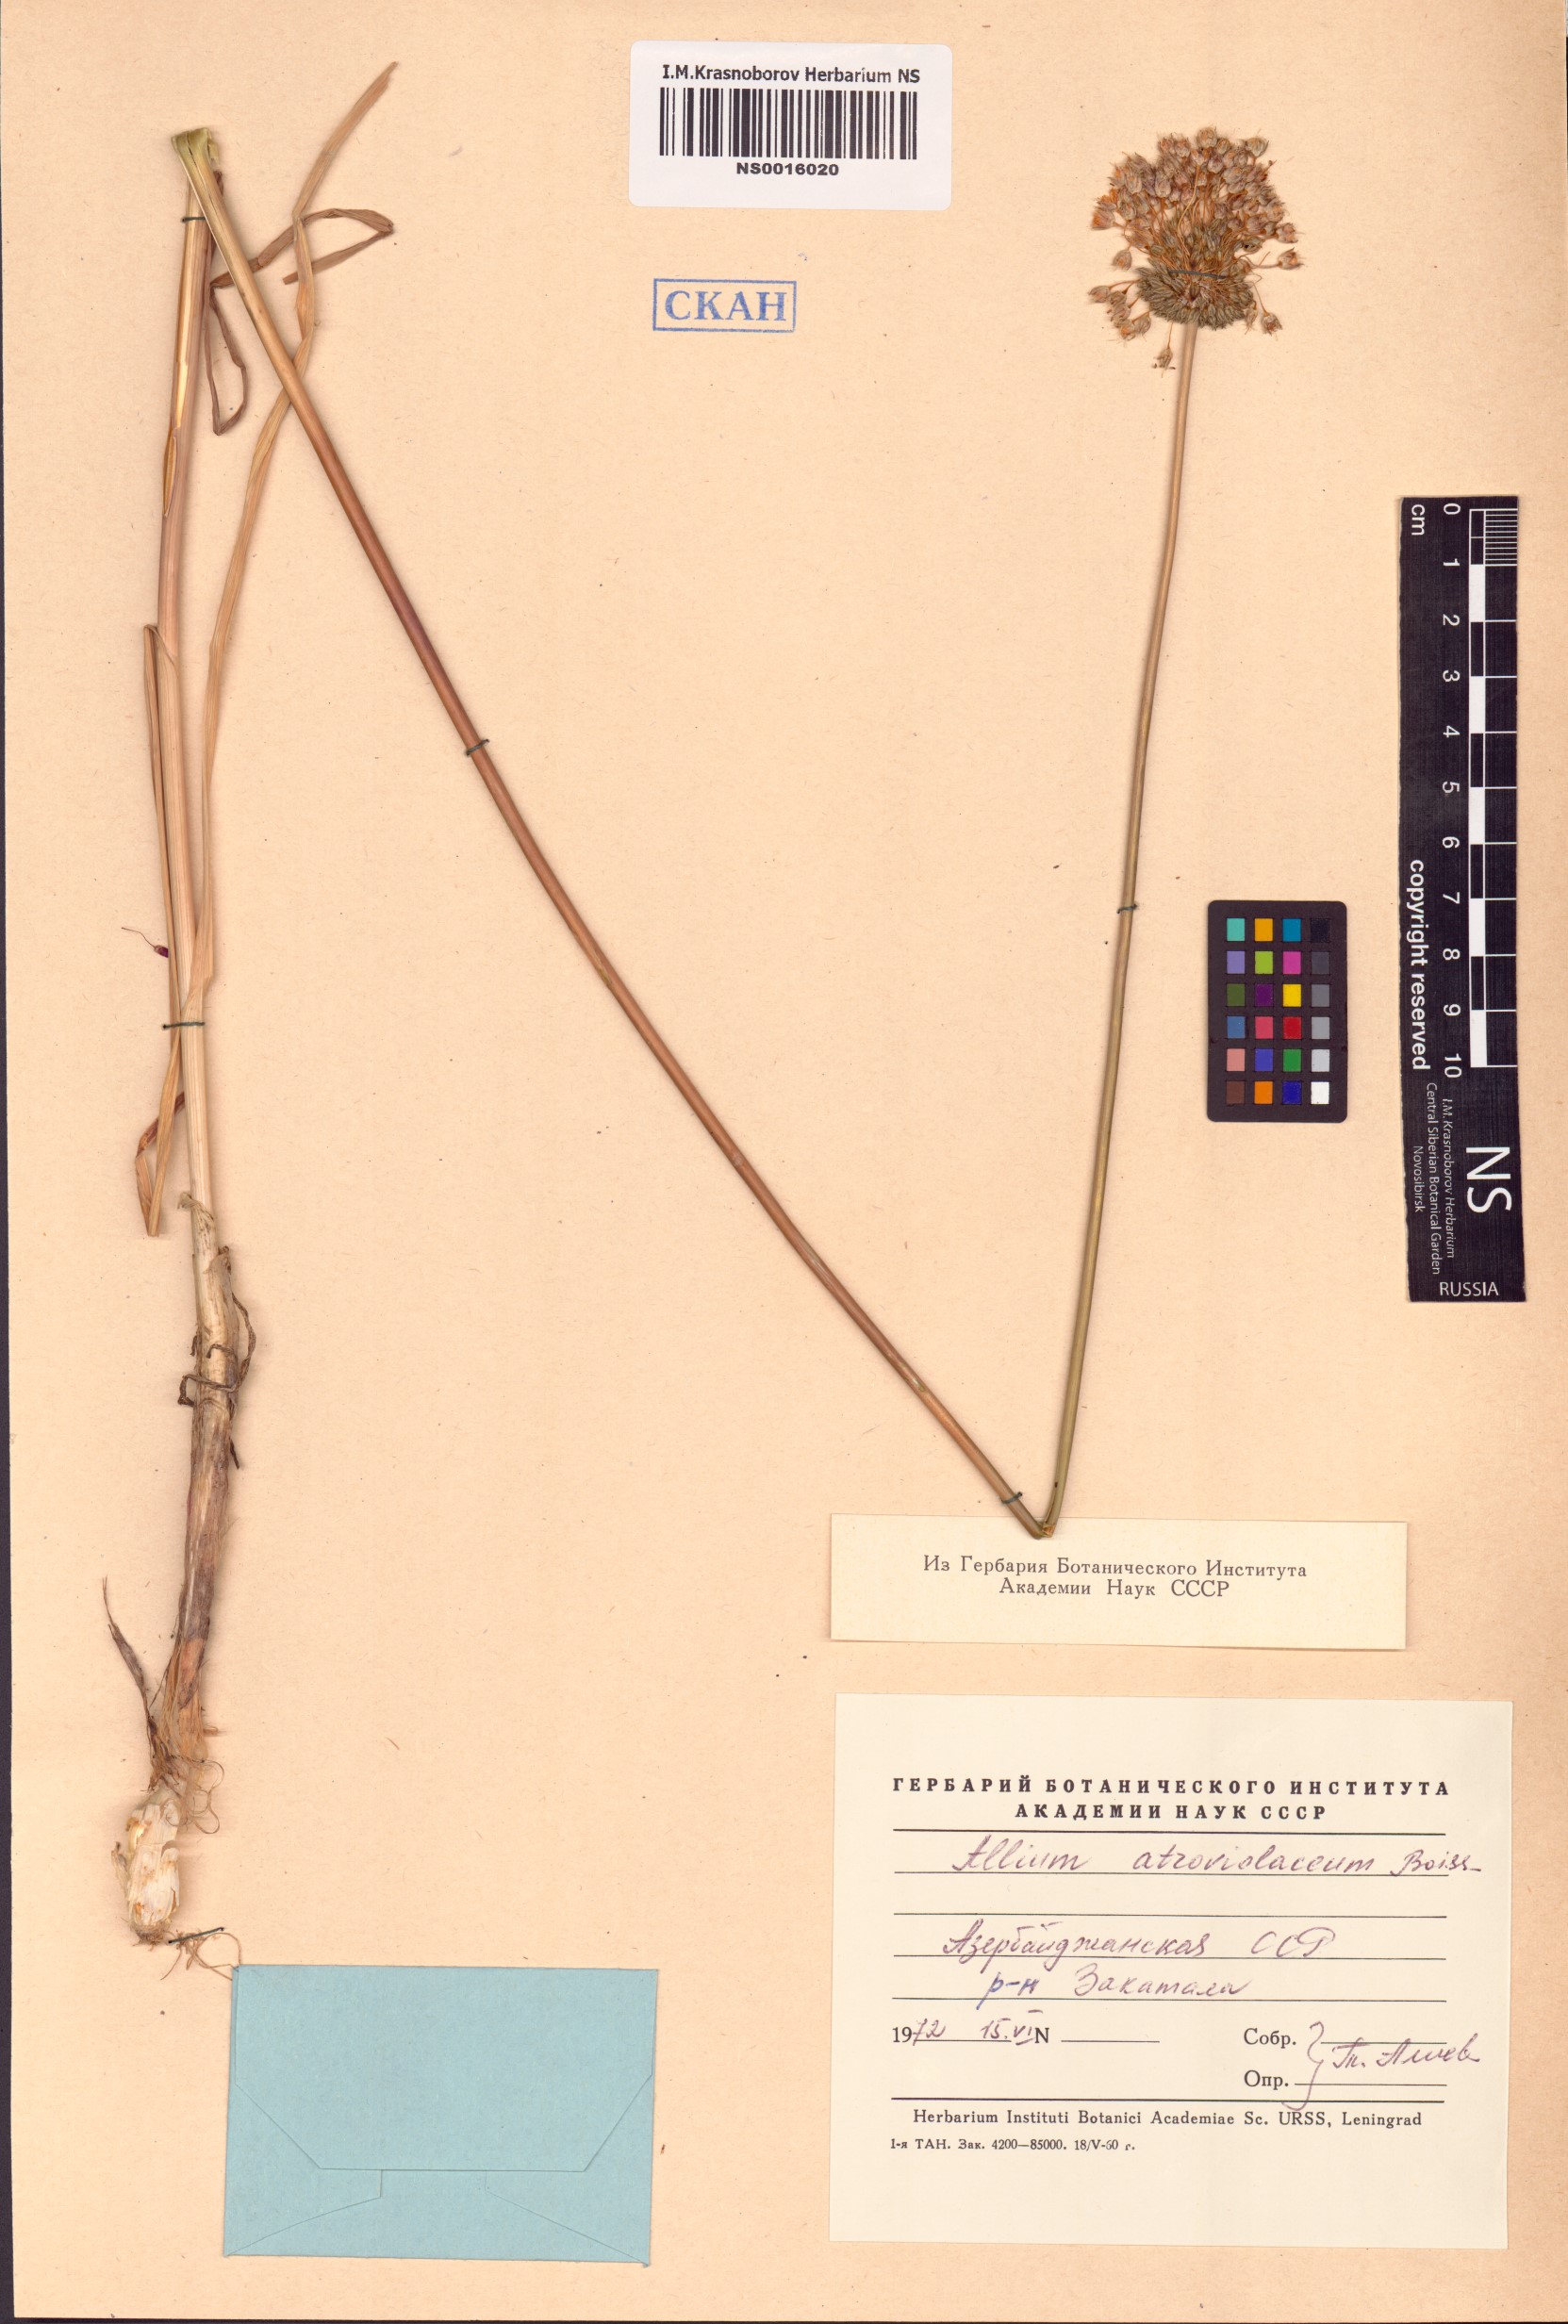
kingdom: Plantae
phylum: Tracheophyta
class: Liliopsida
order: Asparagales
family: Amaryllidaceae
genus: Allium
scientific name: Allium atroviolaceum
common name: Broadleaf wild leek
